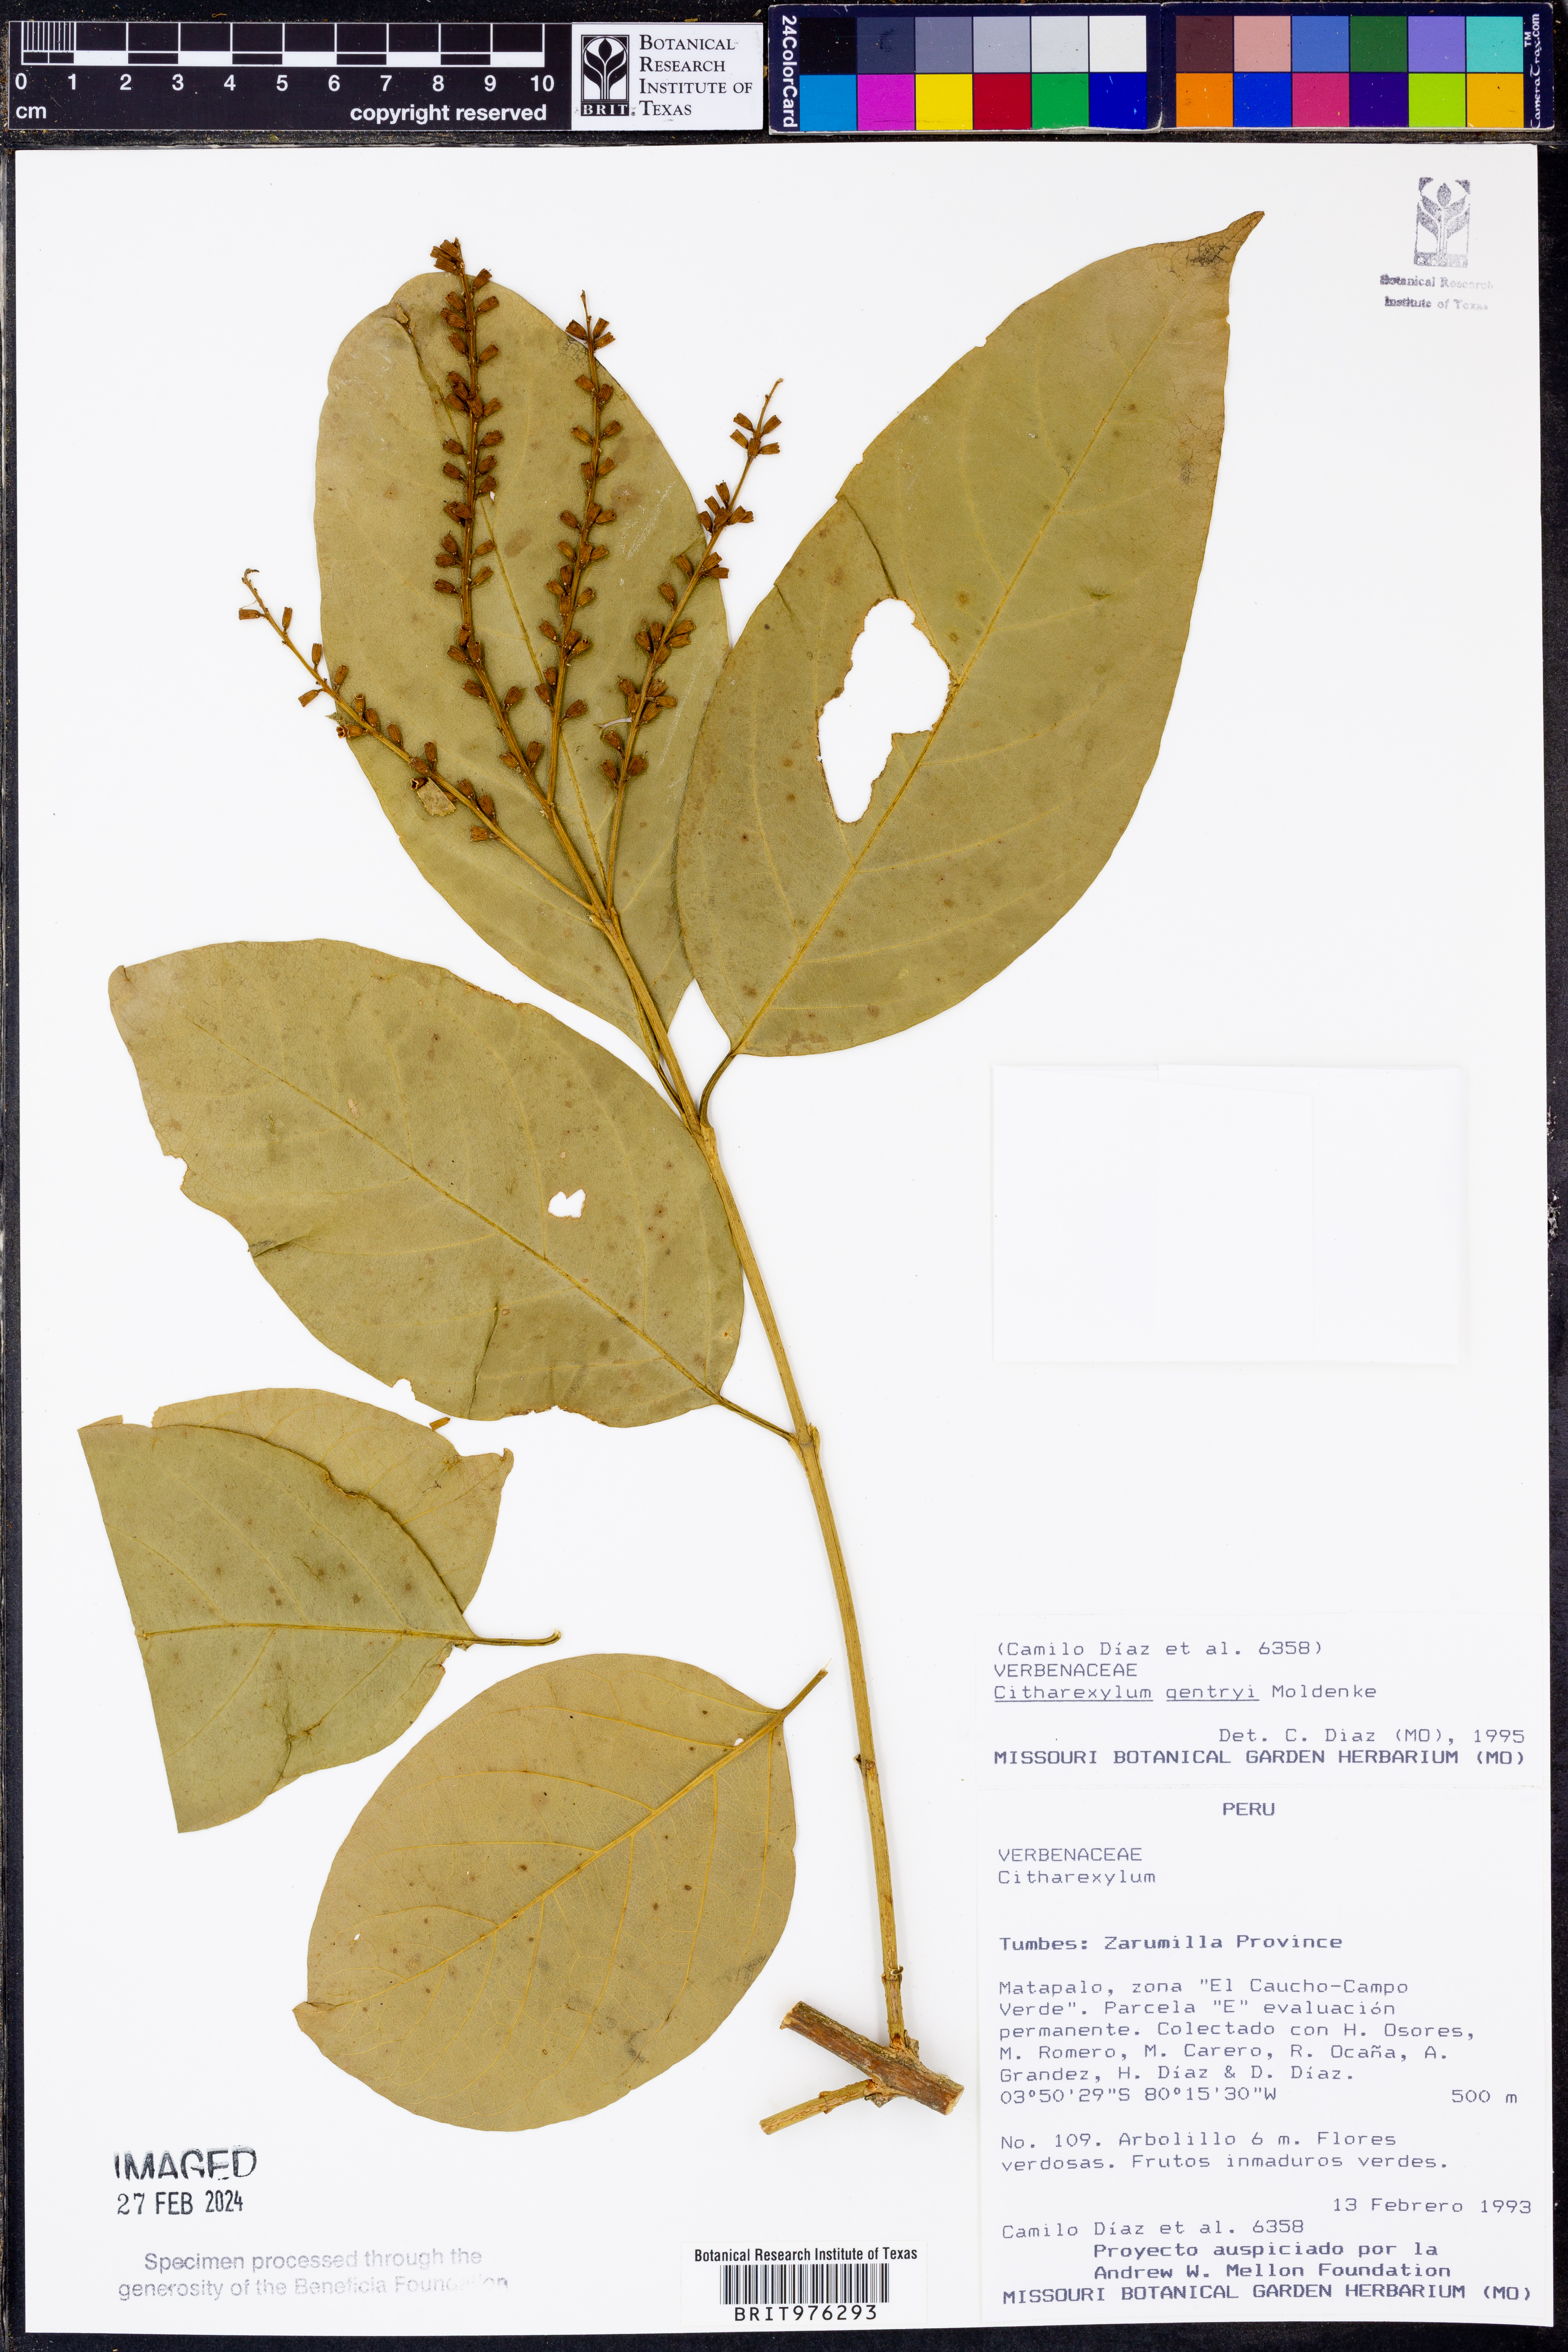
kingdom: Plantae
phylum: Tracheophyta
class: Magnoliopsida
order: Lamiales
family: Verbenaceae
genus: Citharexylum
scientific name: Citharexylum
